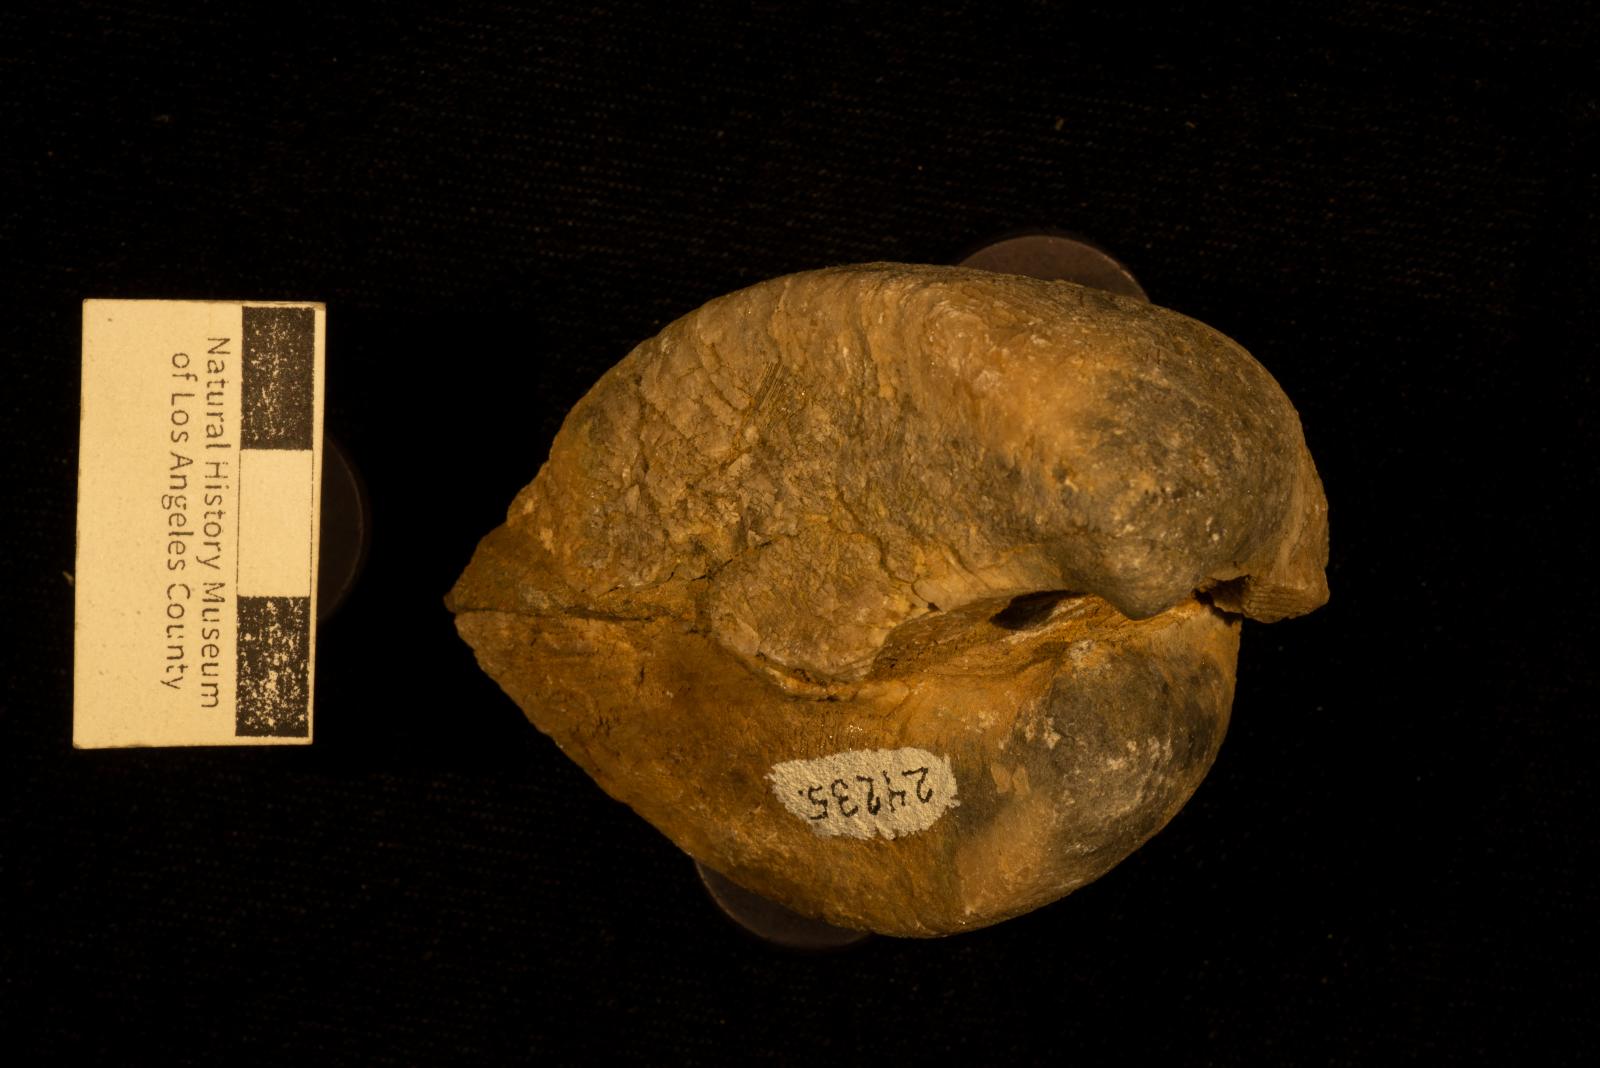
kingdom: Animalia
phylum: Mollusca
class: Bivalvia
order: Arcida
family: Arcidae
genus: Trigonarca
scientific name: Trigonarca californica
